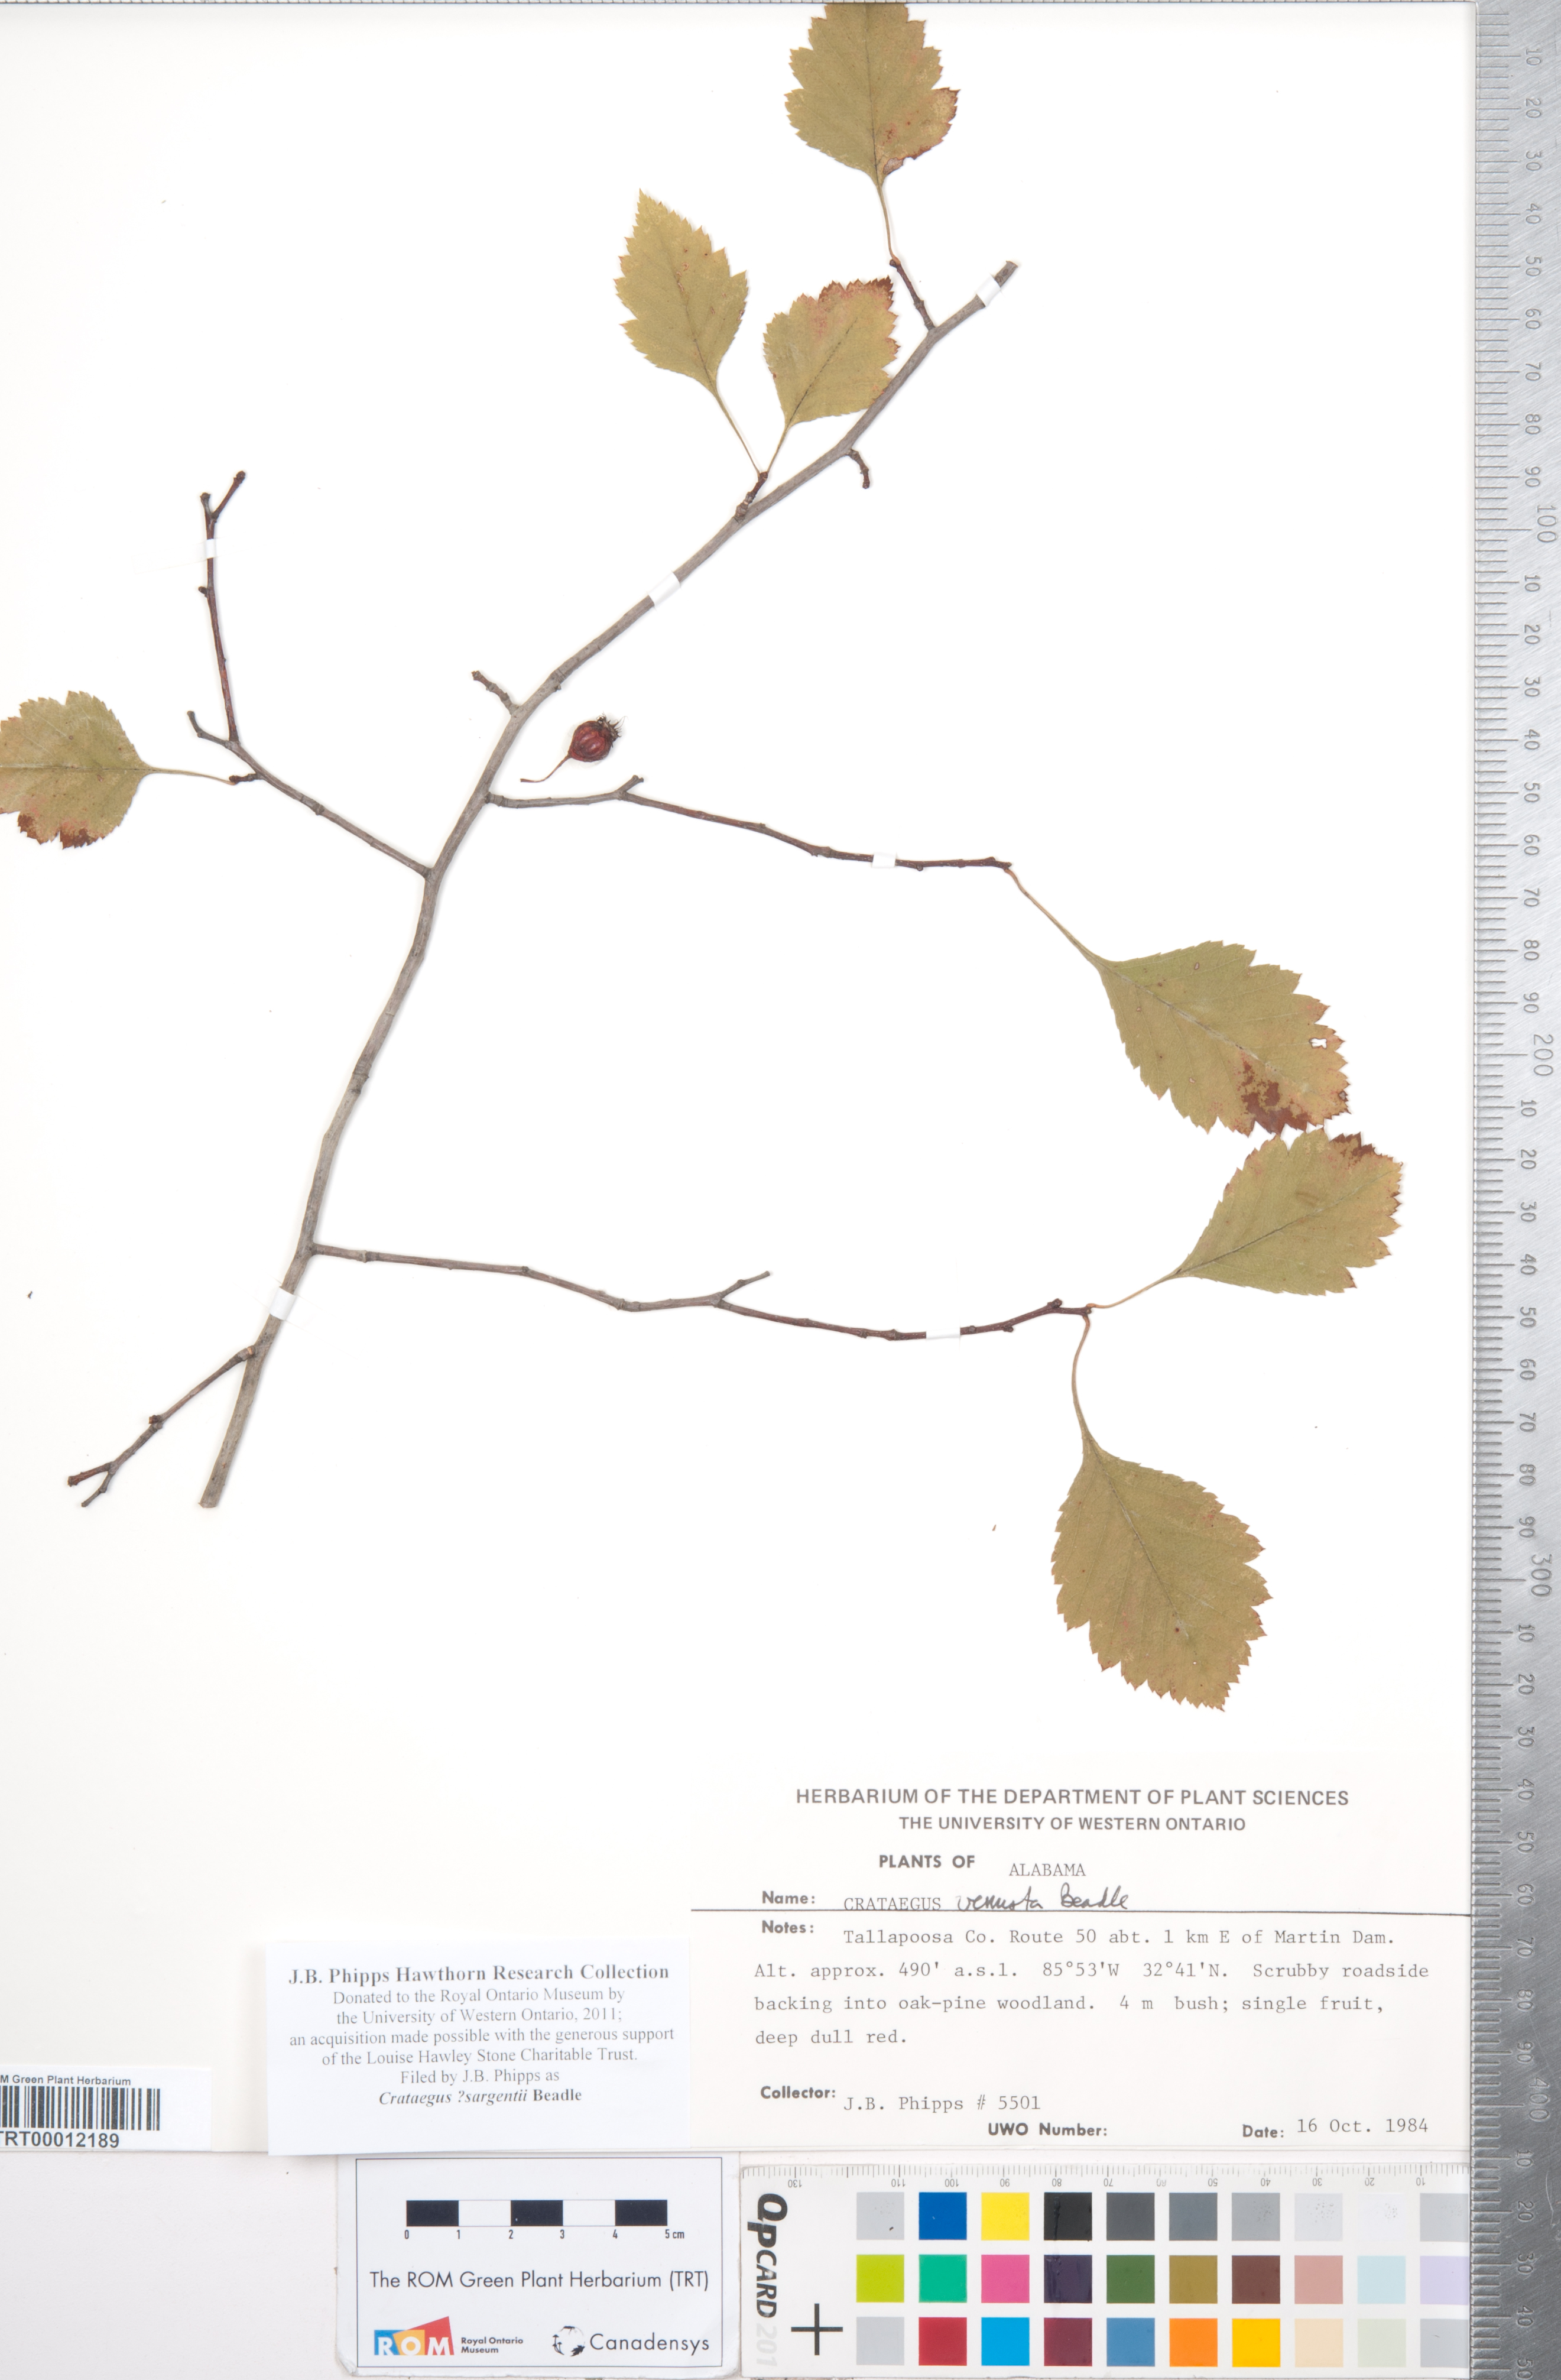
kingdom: Plantae
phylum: Tracheophyta
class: Magnoliopsida
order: Rosales
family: Rosaceae
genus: Crataegus
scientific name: Crataegus sargentii
